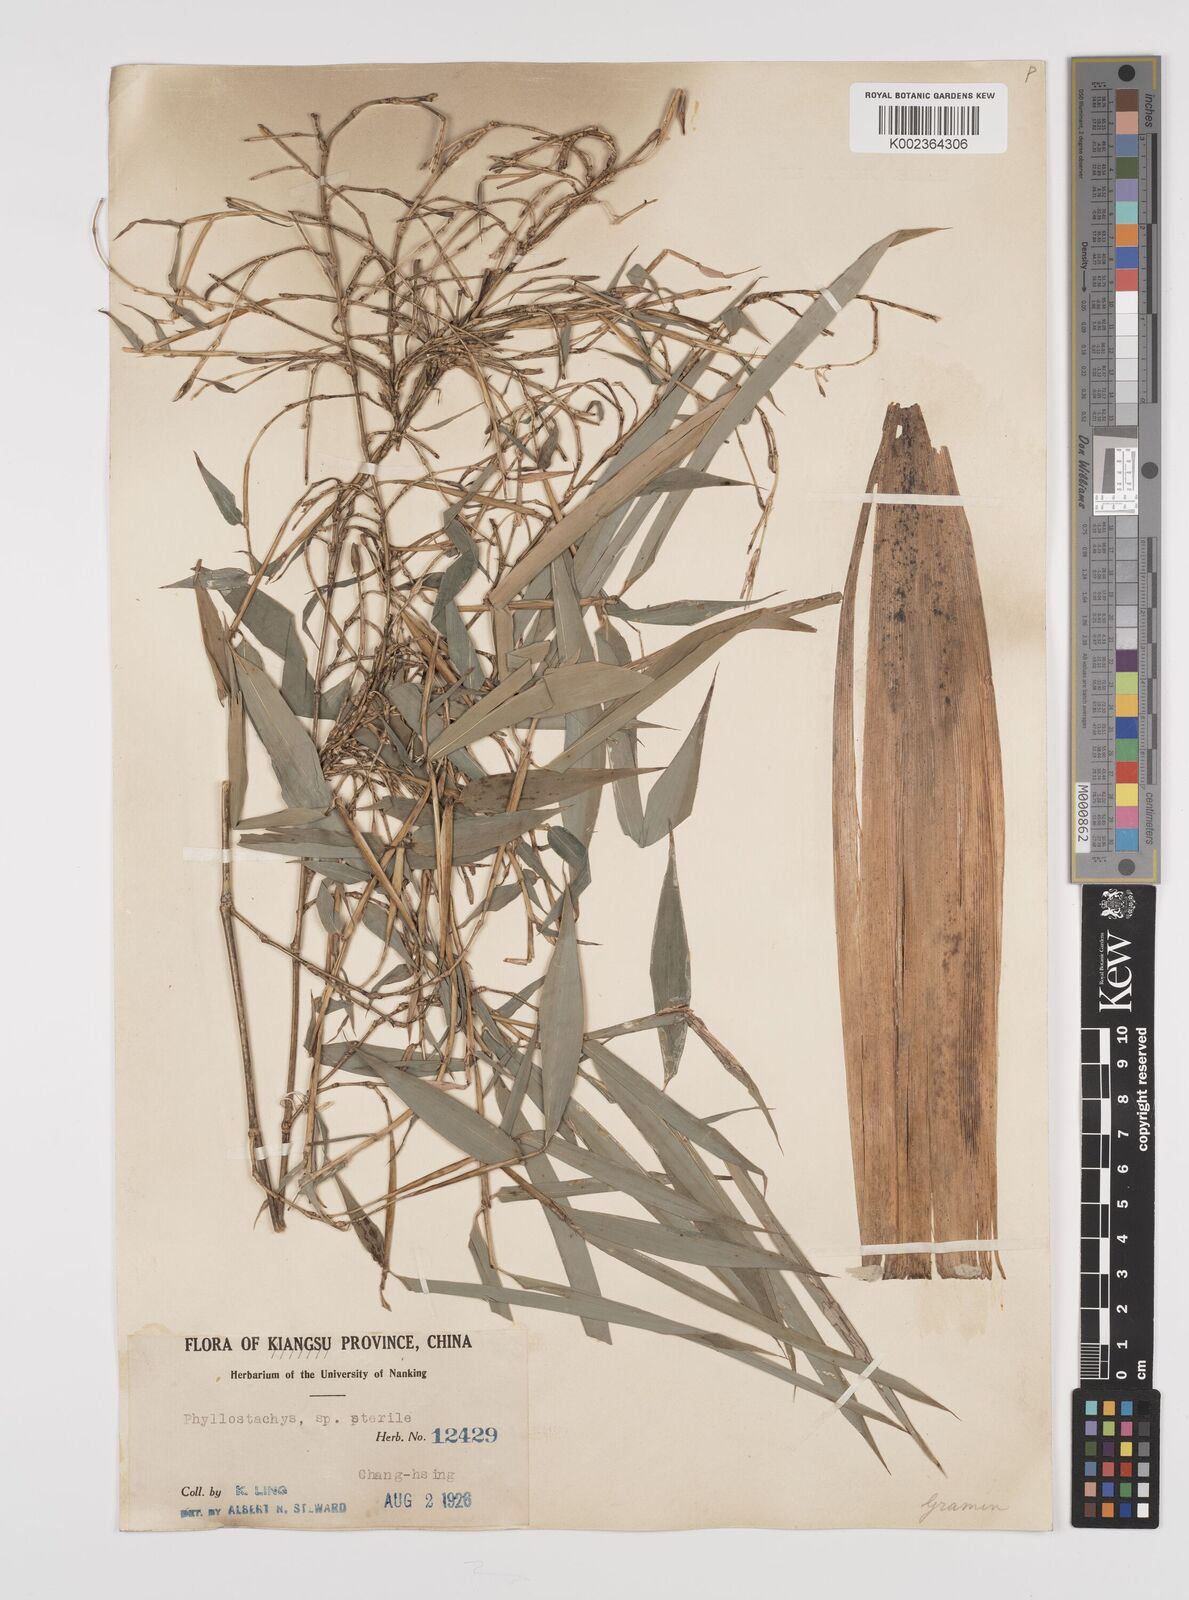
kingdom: Plantae
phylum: Tracheophyta
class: Liliopsida
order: Poales
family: Poaceae
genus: Phyllostachys
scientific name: Phyllostachys
